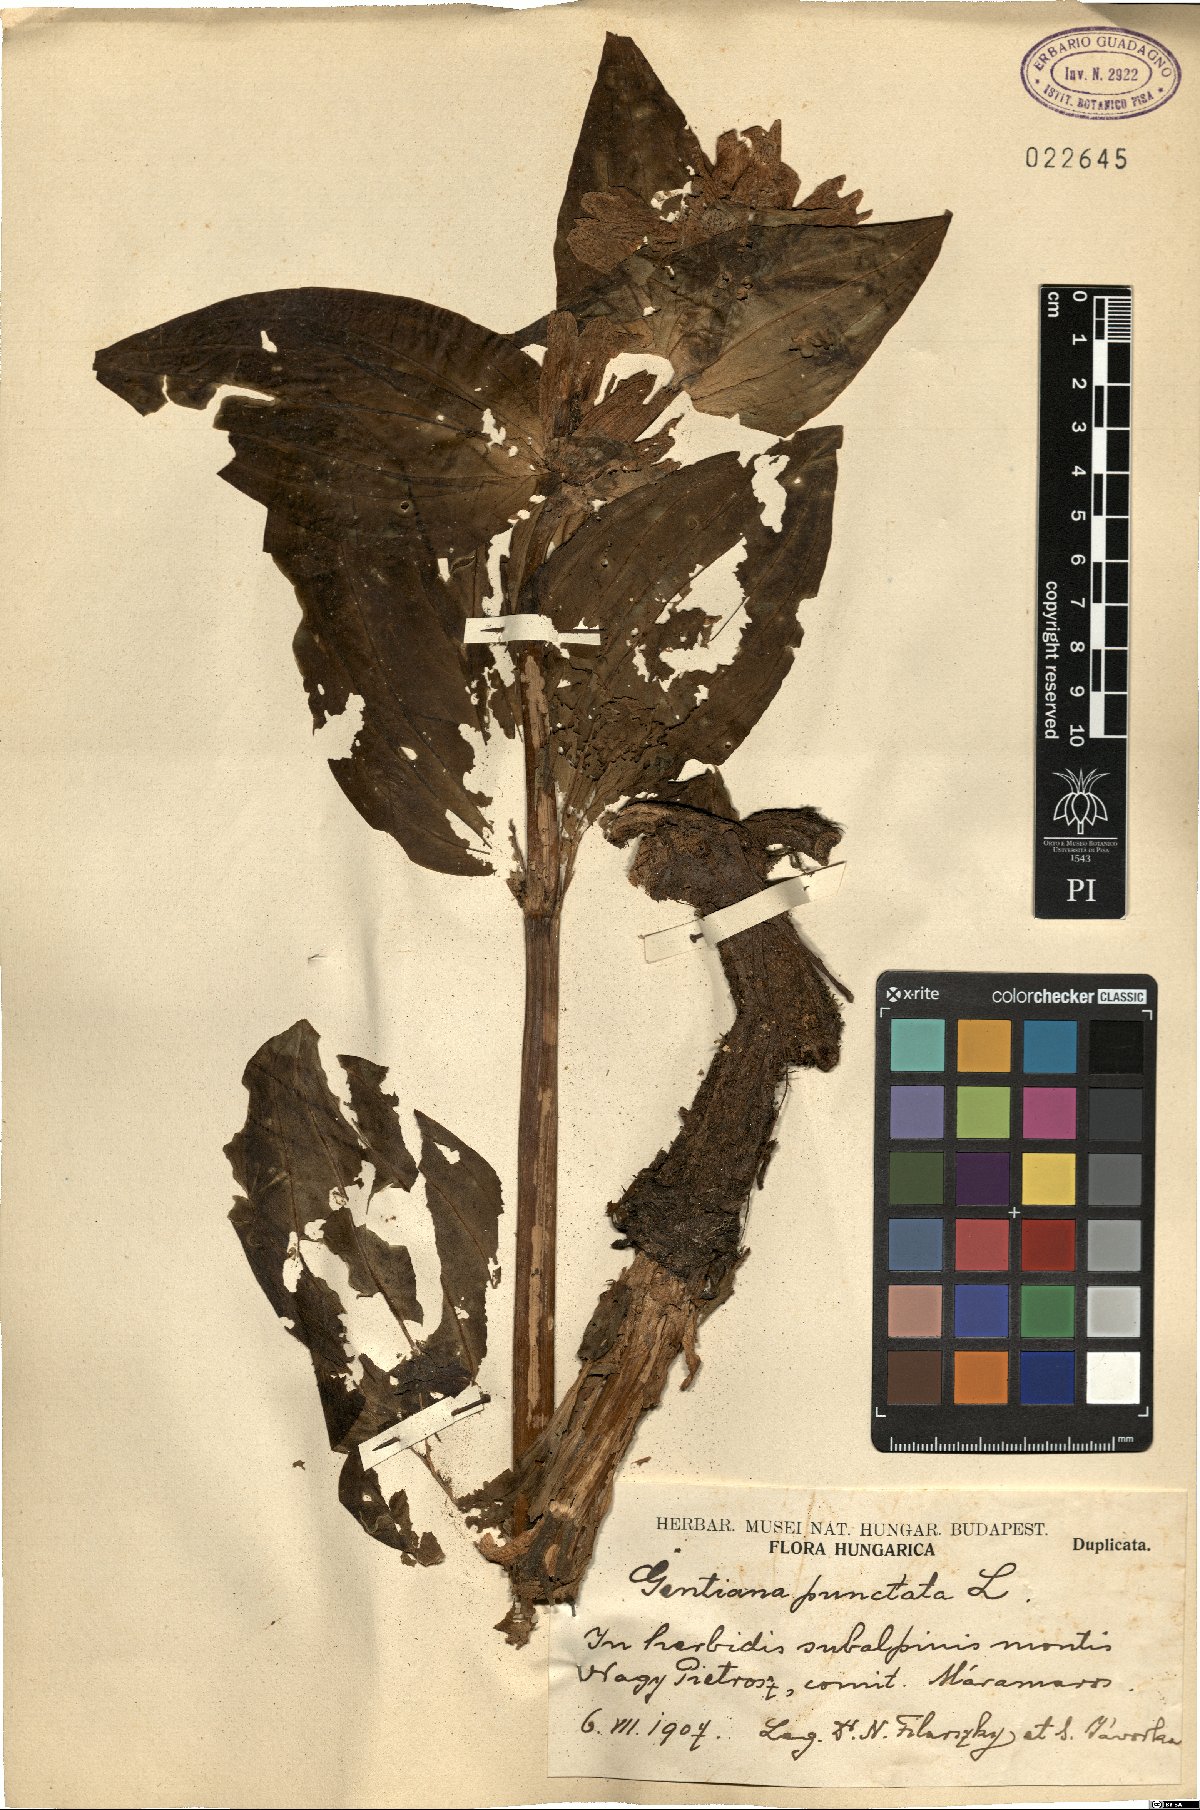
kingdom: Plantae
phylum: Tracheophyta
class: Magnoliopsida
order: Gentianales
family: Gentianaceae
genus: Gentiana
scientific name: Gentiana punctata
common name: Spotted gentian
